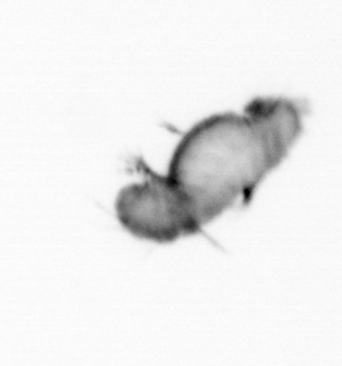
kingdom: Animalia
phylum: Annelida
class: Polychaeta
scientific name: Polychaeta
